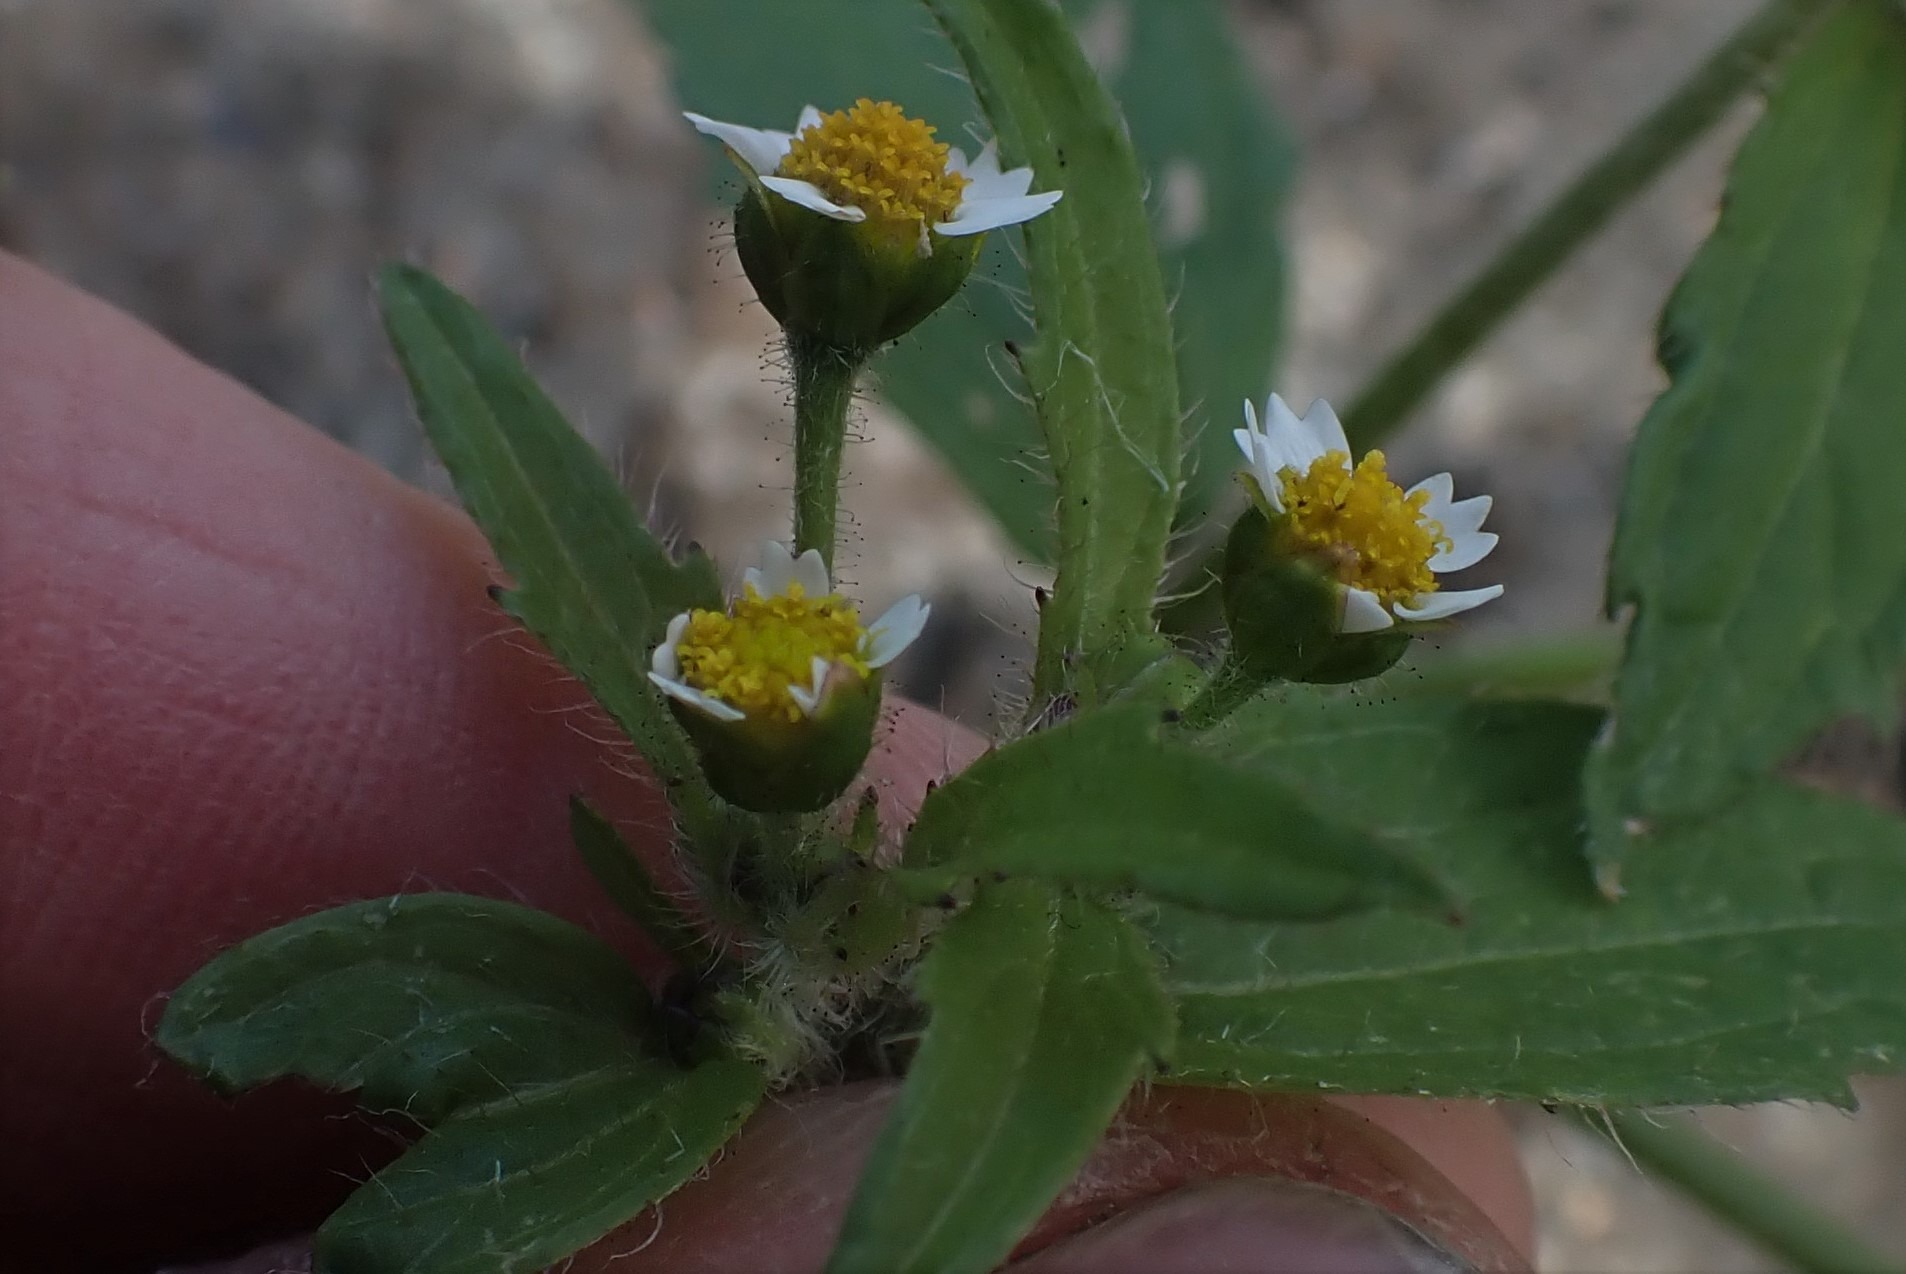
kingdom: Plantae
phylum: Tracheophyta
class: Magnoliopsida
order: Asterales
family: Asteraceae
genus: Galinsoga
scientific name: Galinsoga quadriradiata
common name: Kirtel-kortstråle
